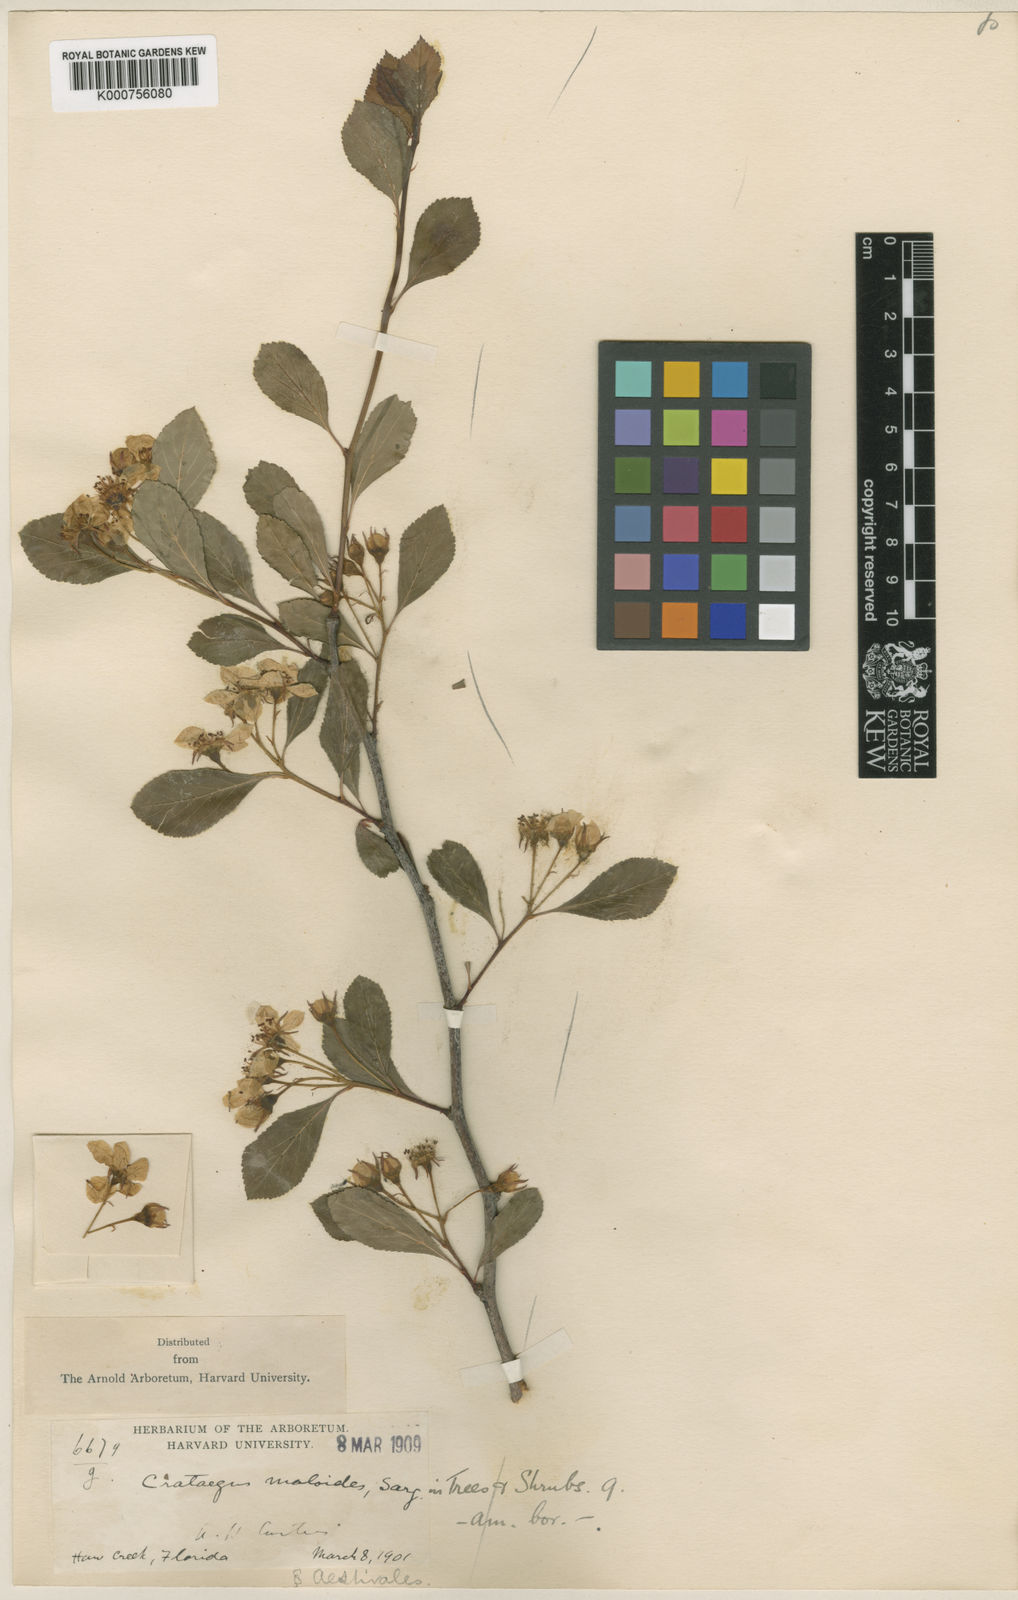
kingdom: Plantae
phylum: Tracheophyta
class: Magnoliopsida
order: Rosales
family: Rosaceae
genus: Crataegus
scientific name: Crataegus aestivalis
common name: Mayhaw
